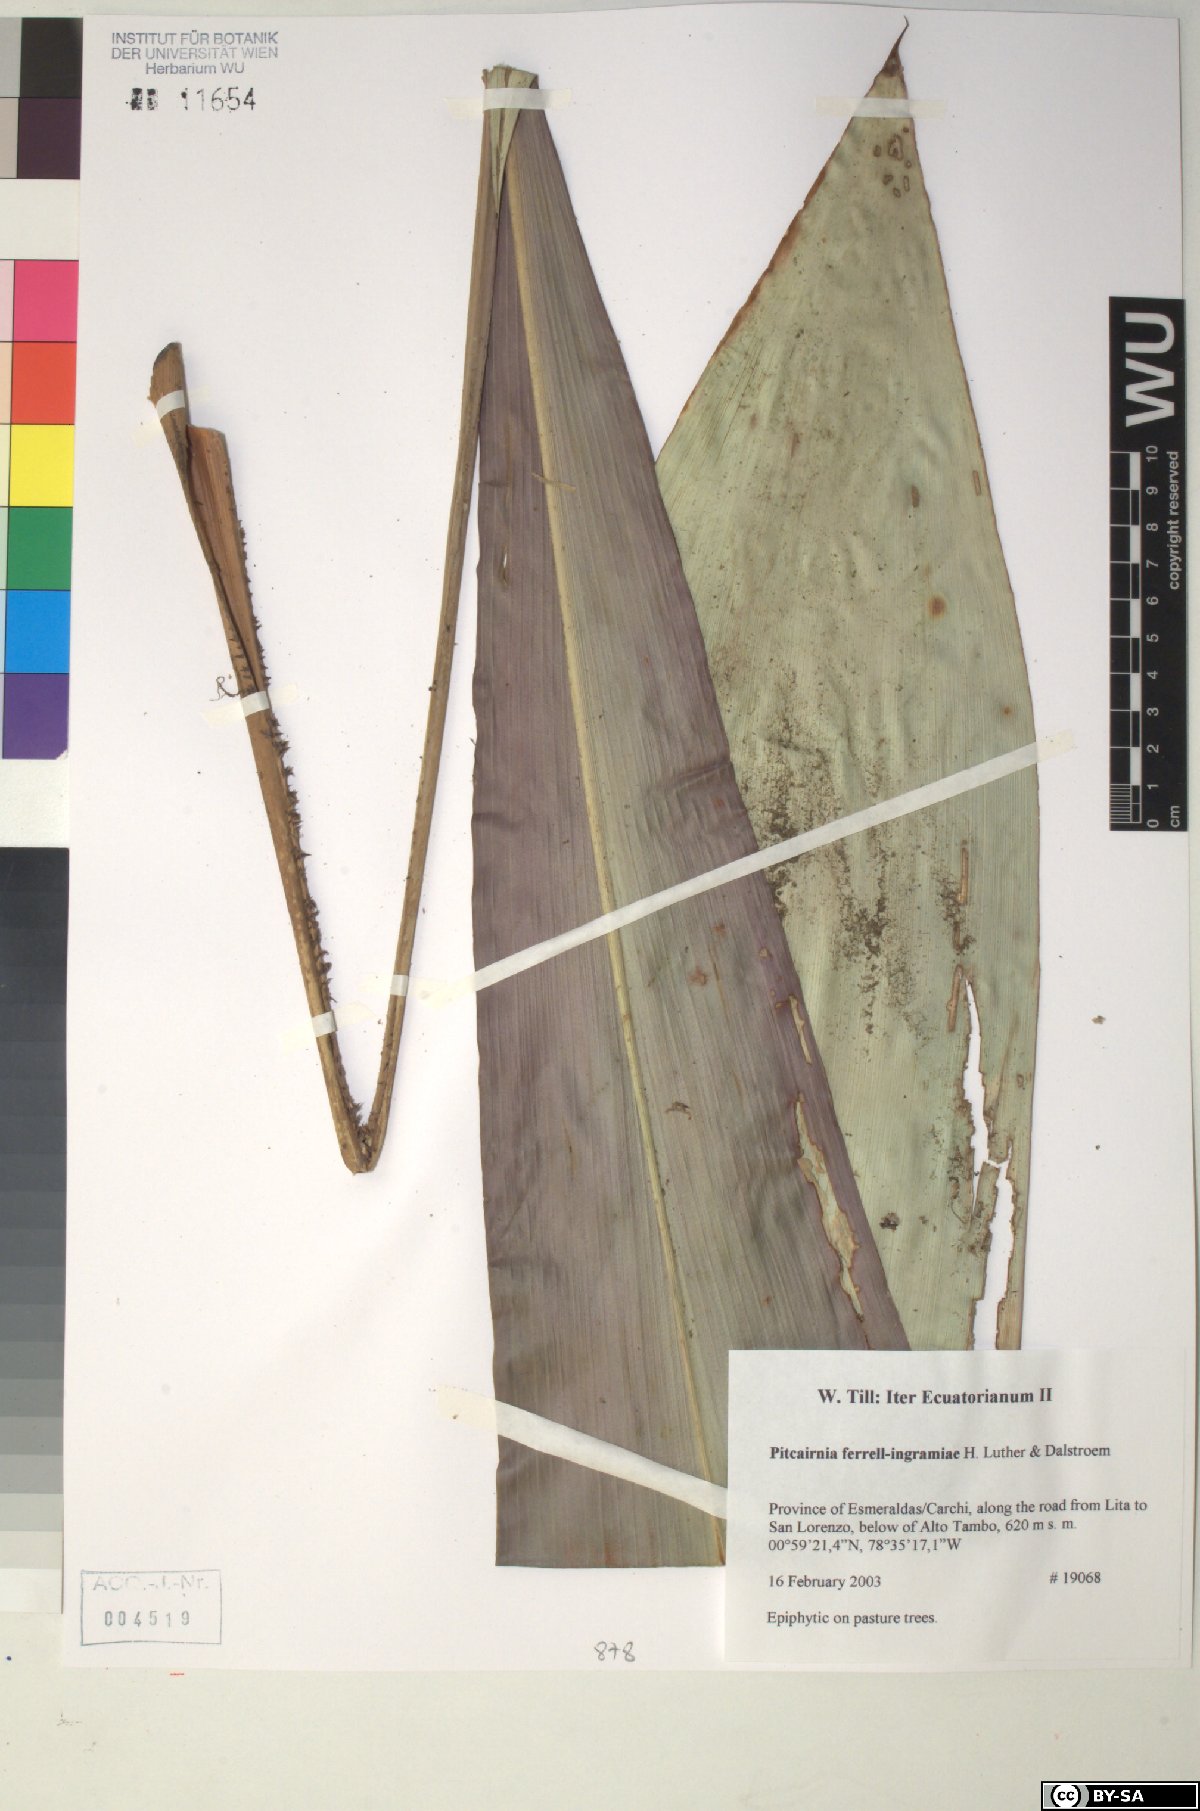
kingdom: Plantae
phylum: Tracheophyta
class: Liliopsida
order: Poales
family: Bromeliaceae
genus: Pitcairnia
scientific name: Pitcairnia ferrell-ingramiae
